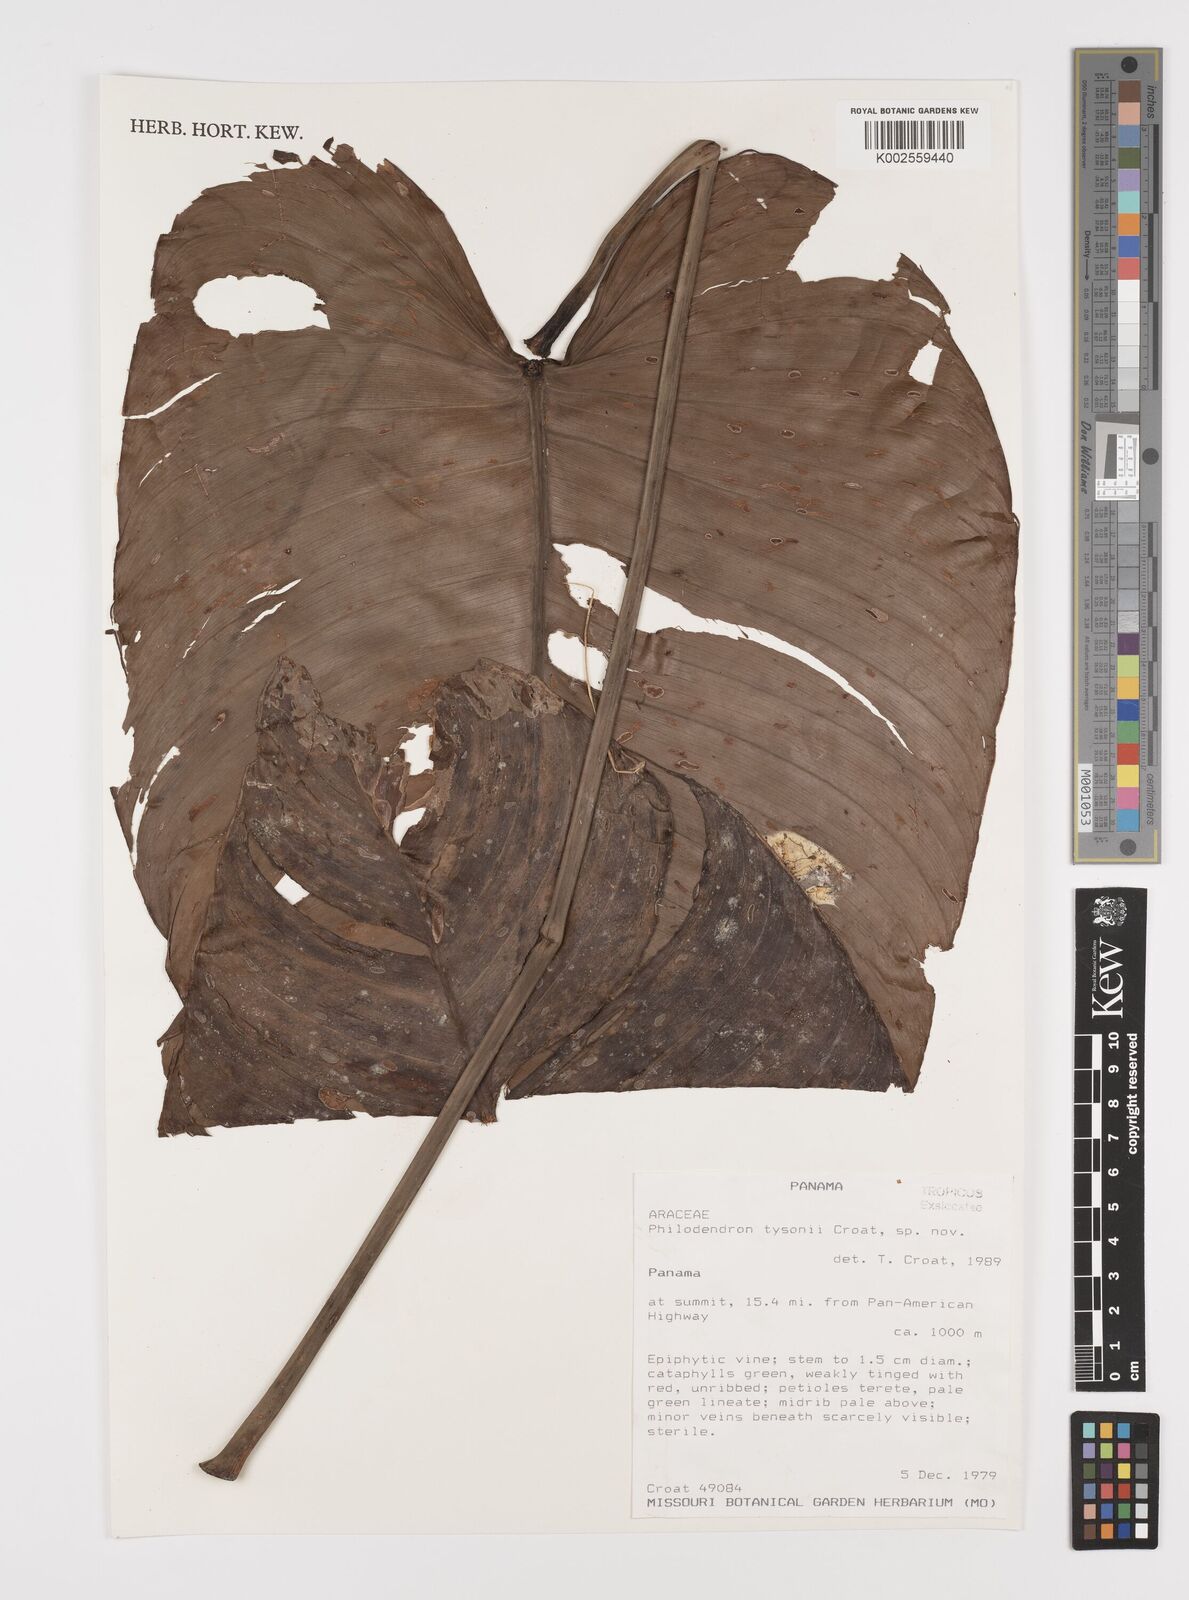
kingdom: Plantae
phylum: Tracheophyta
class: Liliopsida
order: Alismatales
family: Araceae
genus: Philodendron
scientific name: Philodendron tysonii
